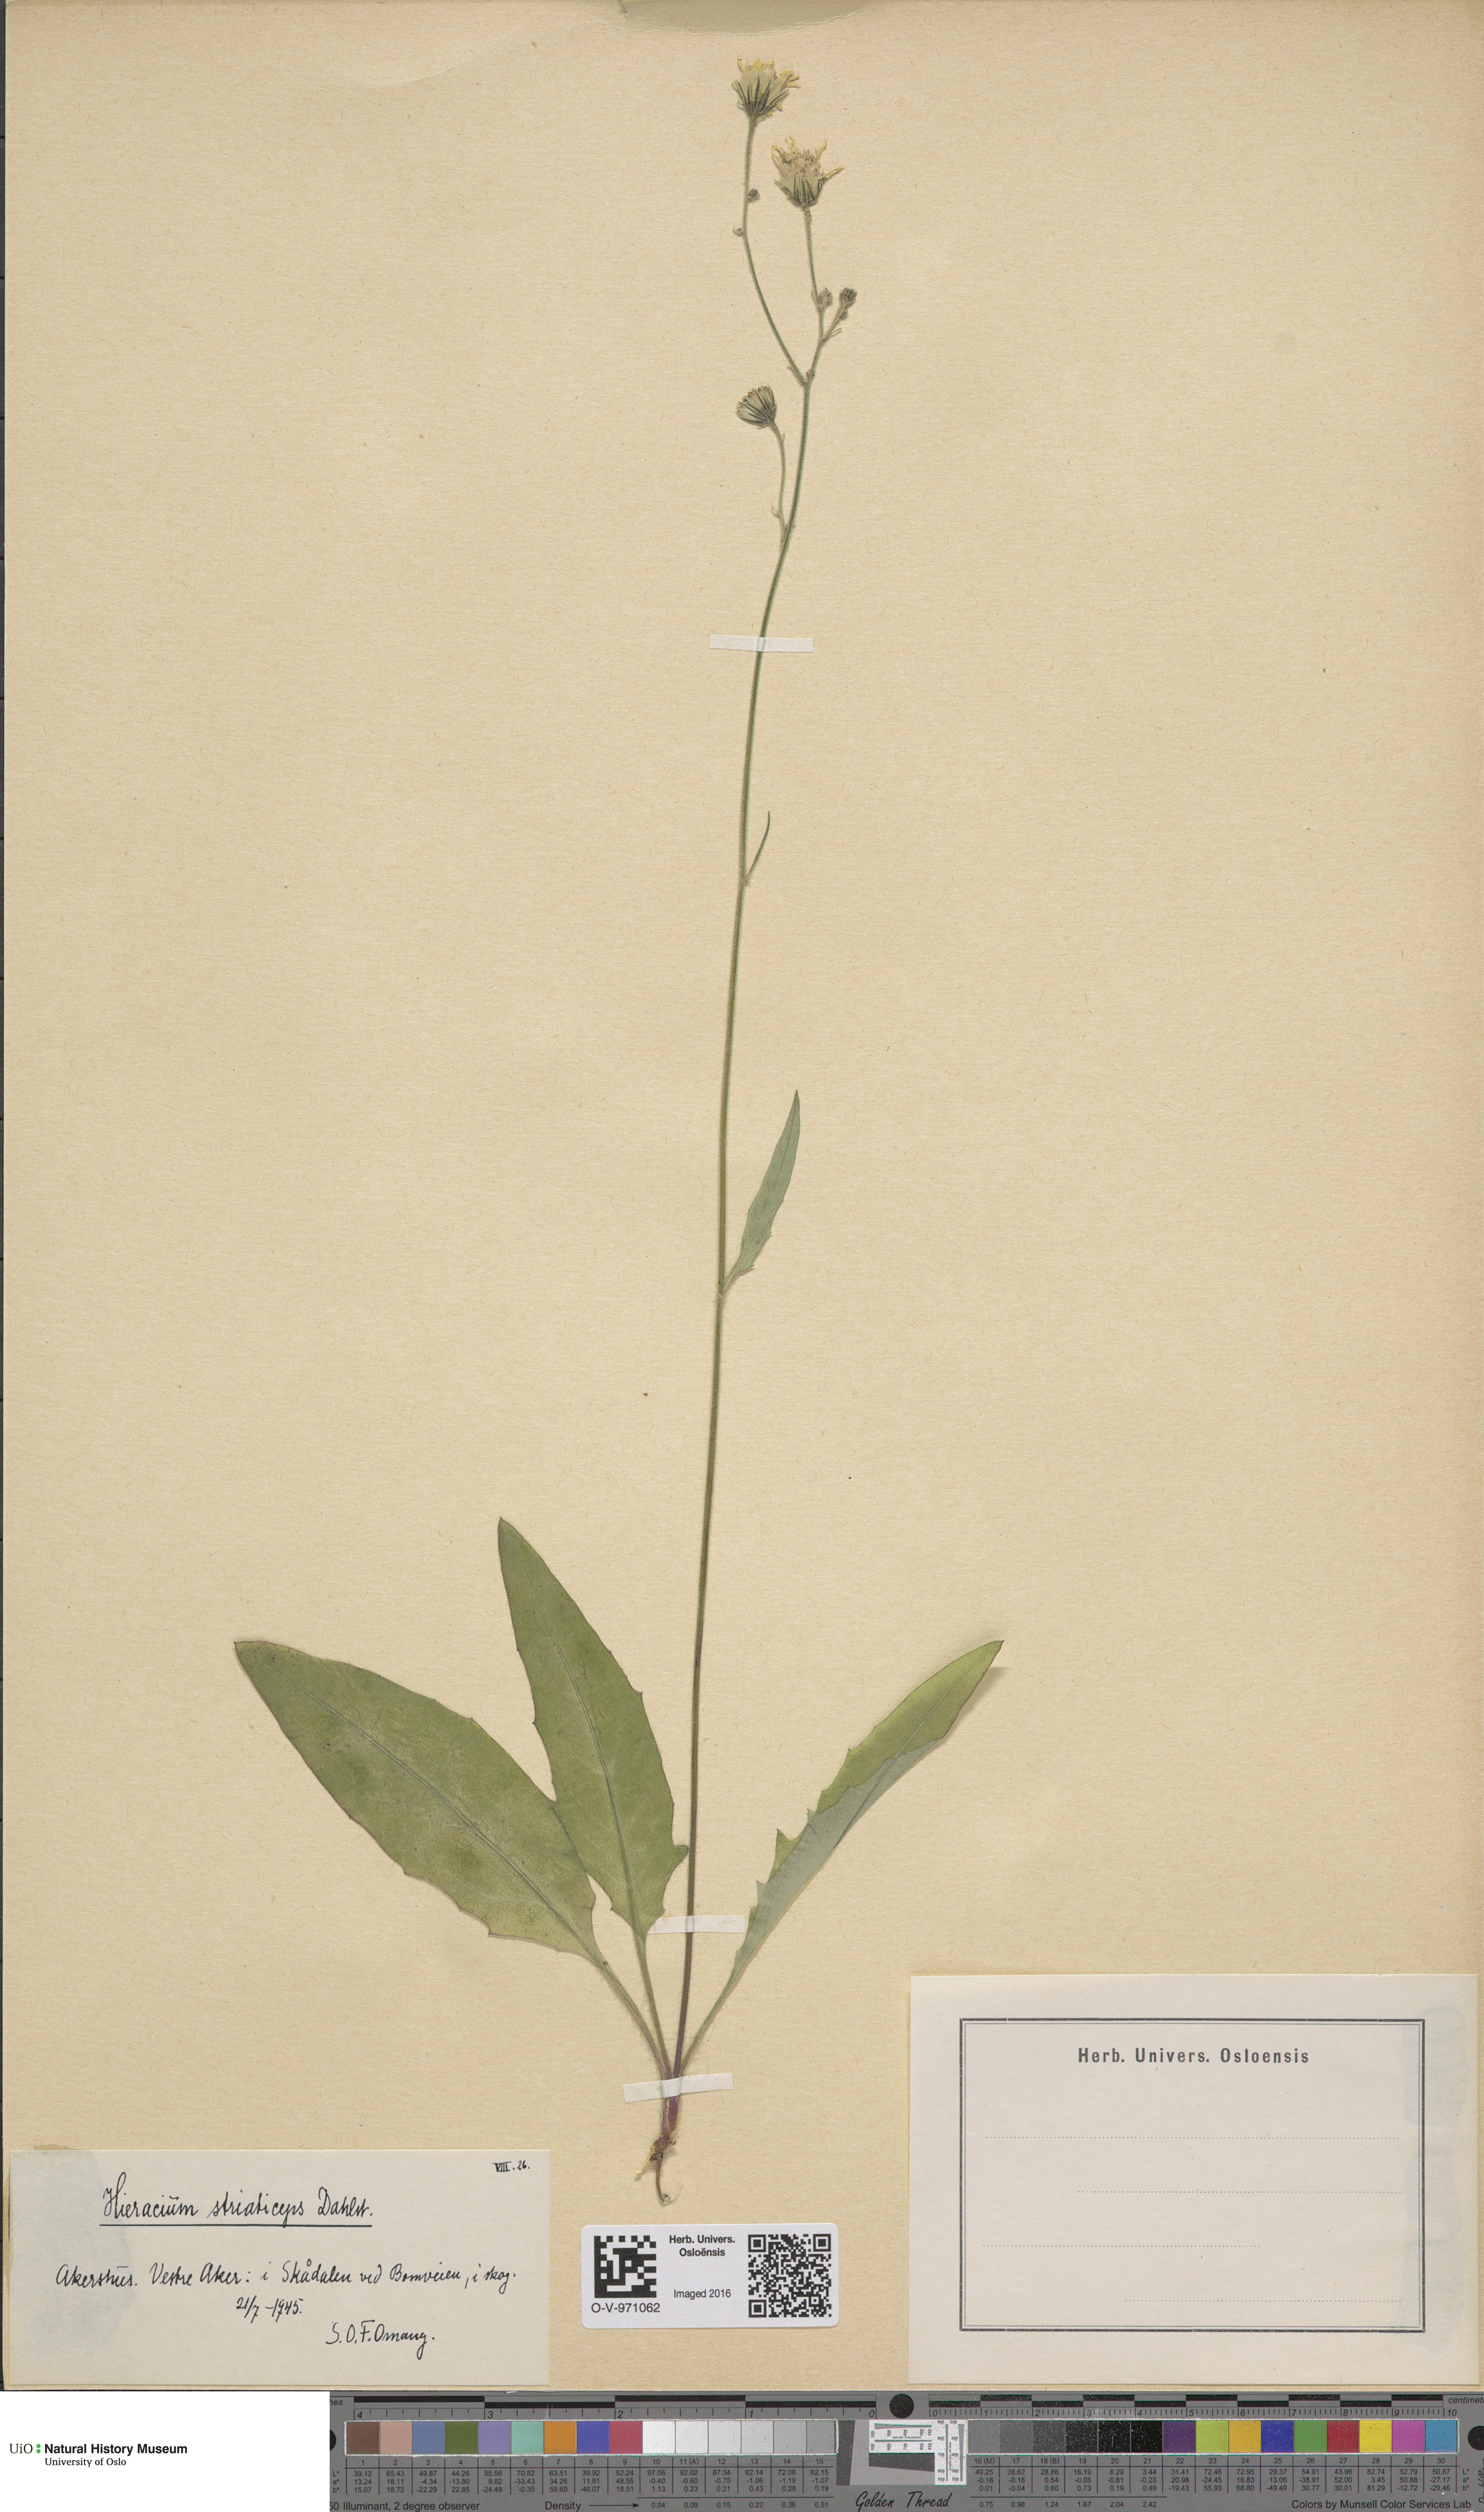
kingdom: Plantae
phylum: Tracheophyta
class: Magnoliopsida
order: Asterales
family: Asteraceae
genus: Hieracium
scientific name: Hieracium
